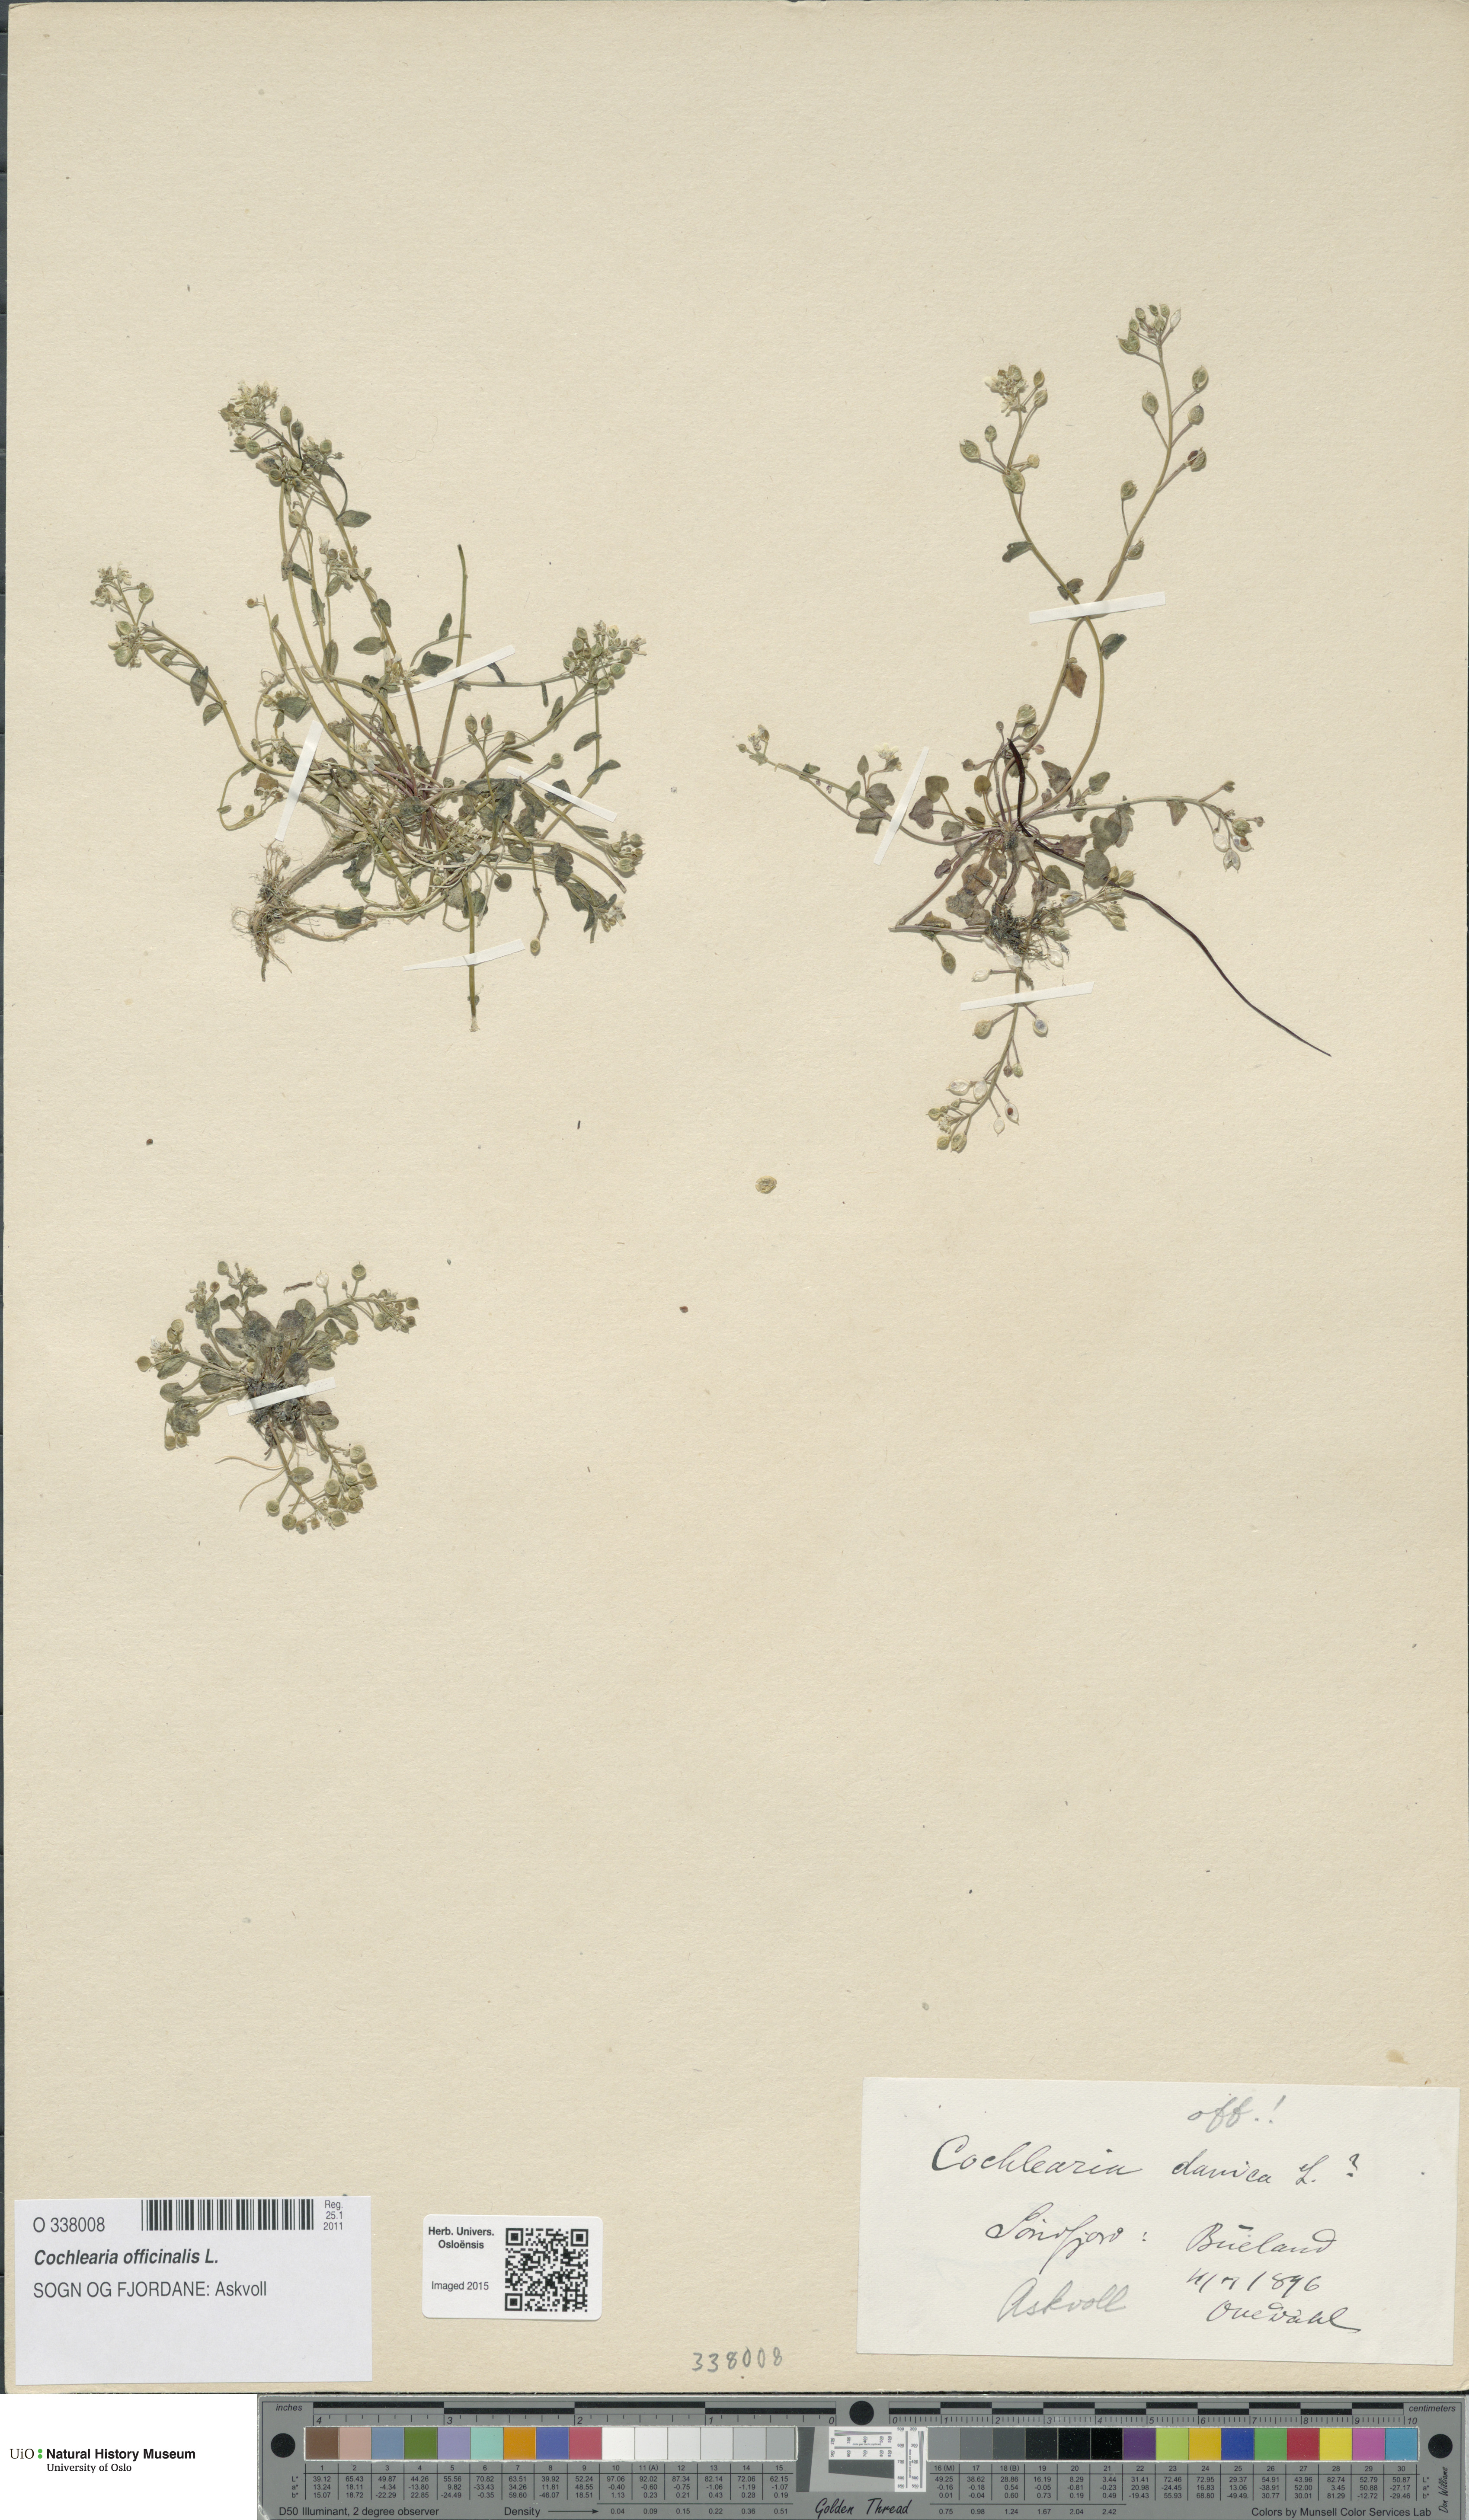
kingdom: Plantae
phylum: Tracheophyta
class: Magnoliopsida
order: Brassicales
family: Brassicaceae
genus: Cochlearia
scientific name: Cochlearia officinalis
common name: Scurvy-grass
